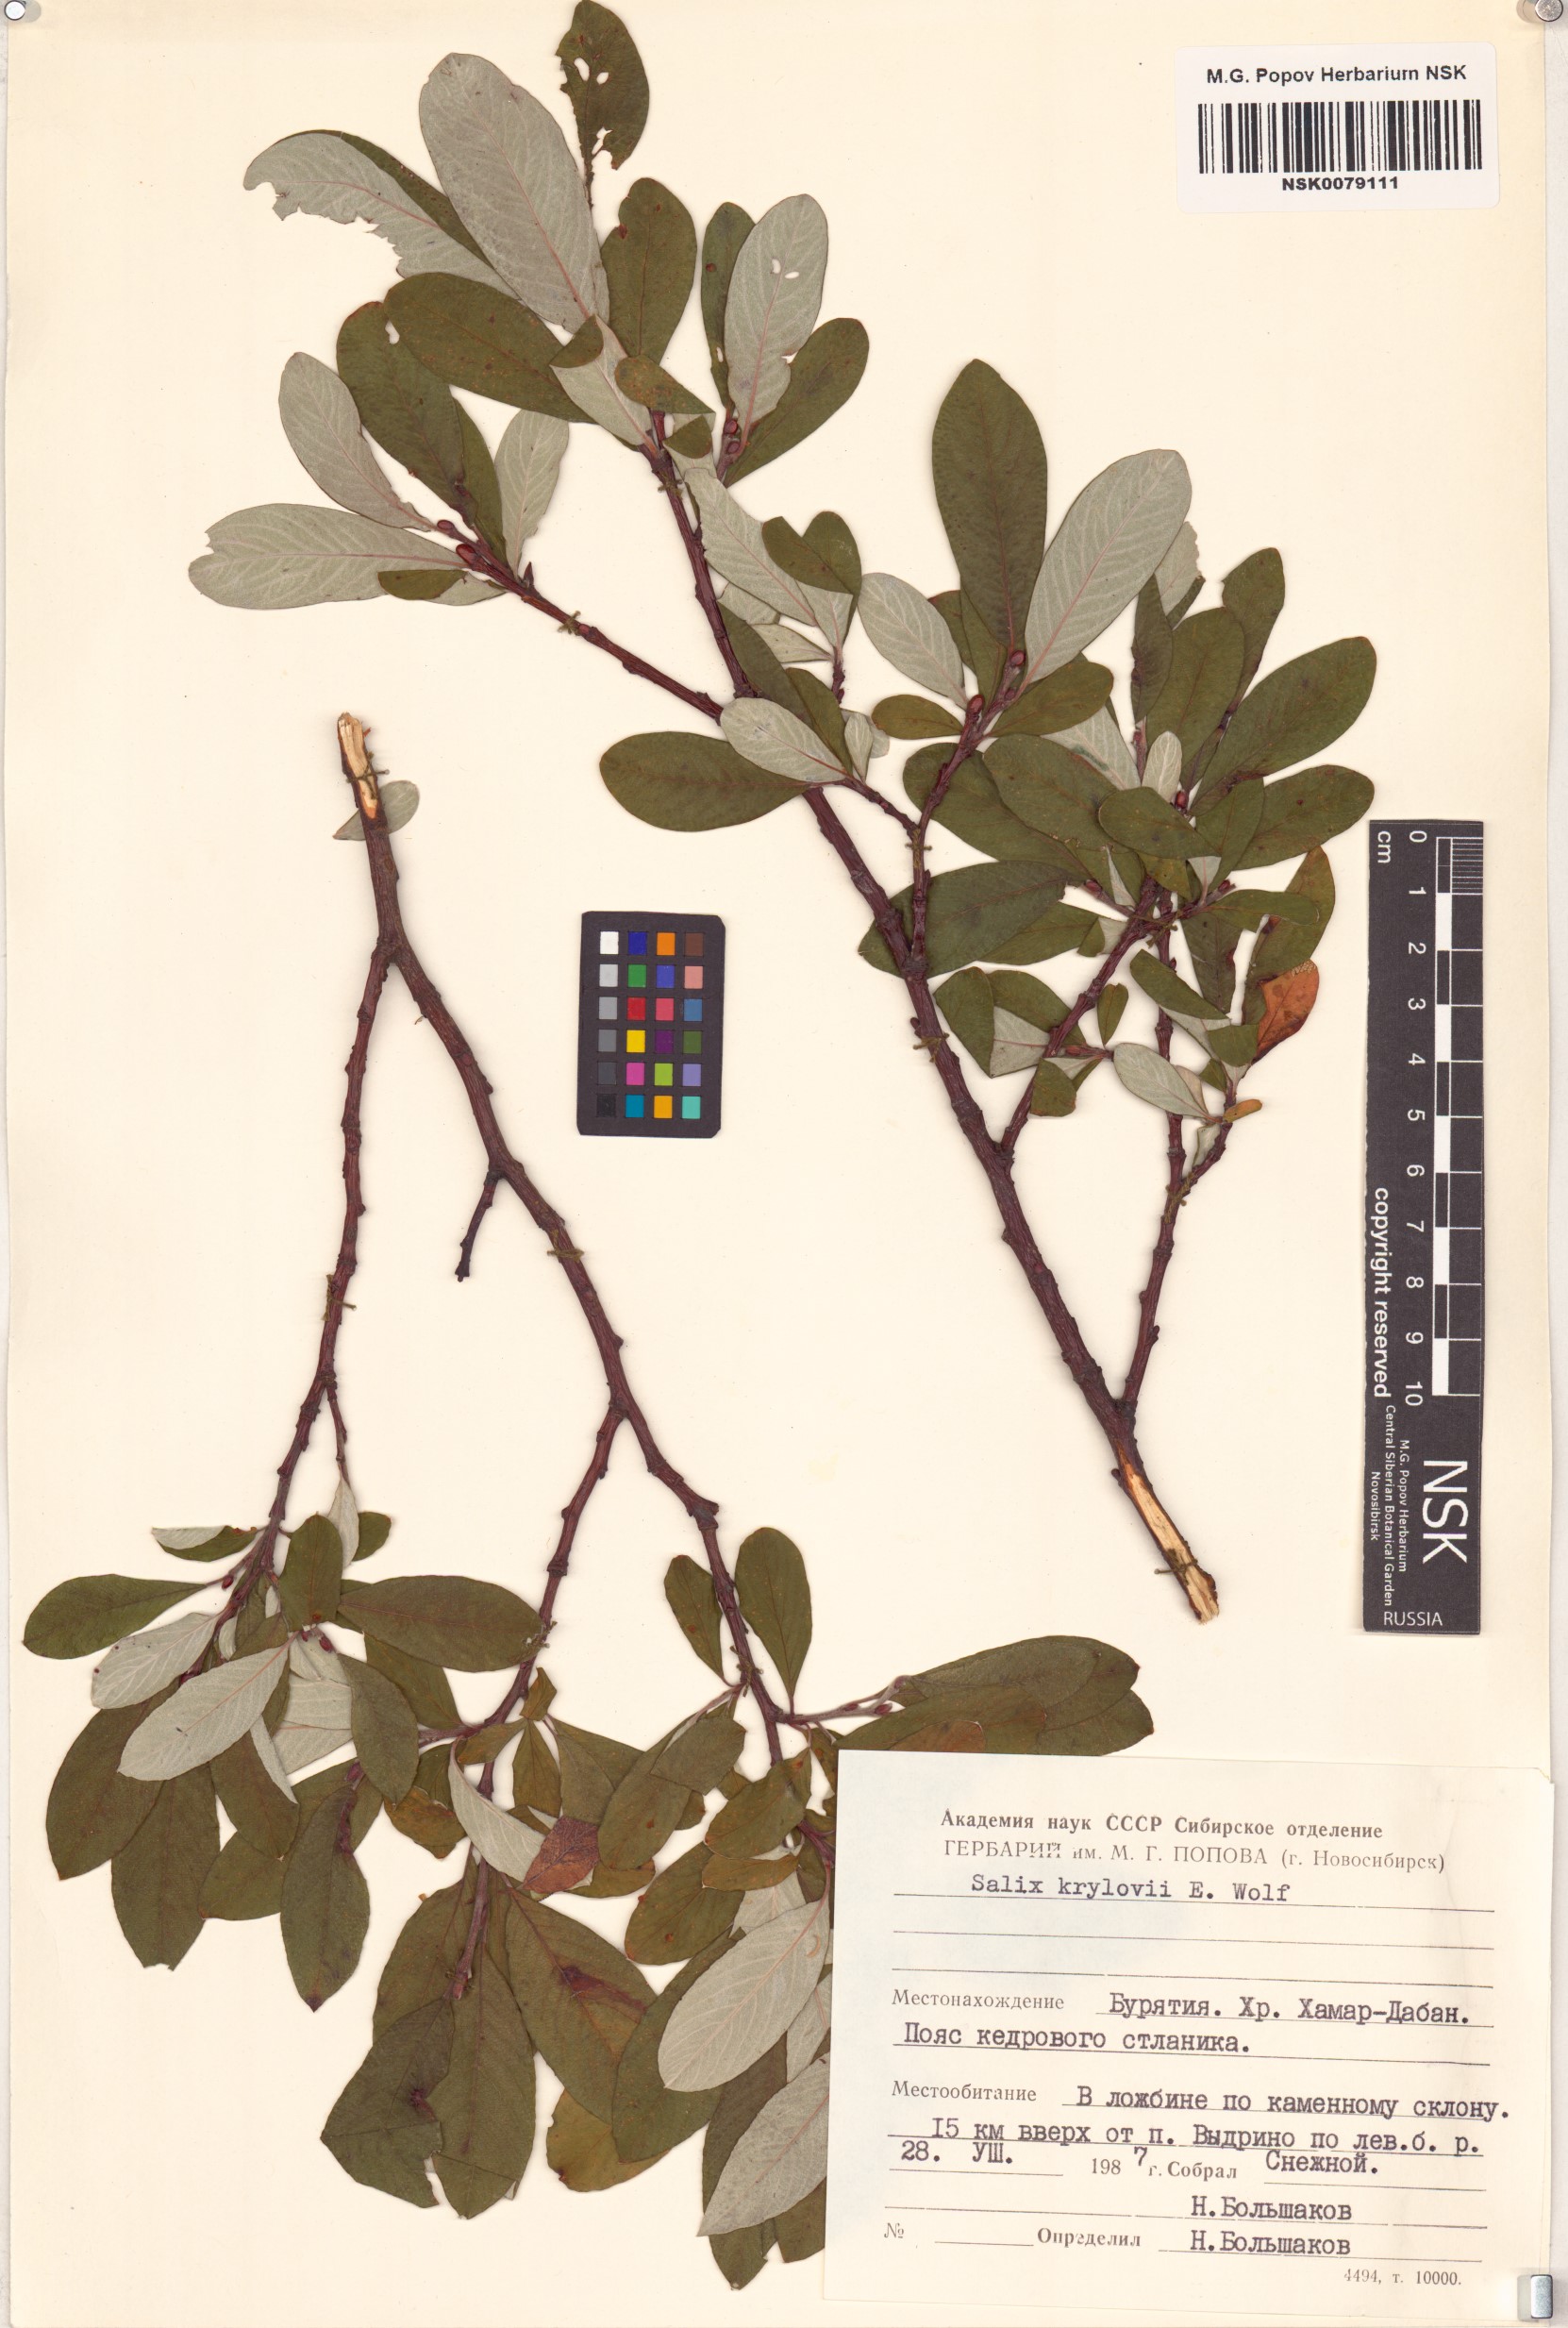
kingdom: Plantae
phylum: Tracheophyta
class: Magnoliopsida
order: Malpighiales
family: Salicaceae
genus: Salix
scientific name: Salix krylovii
